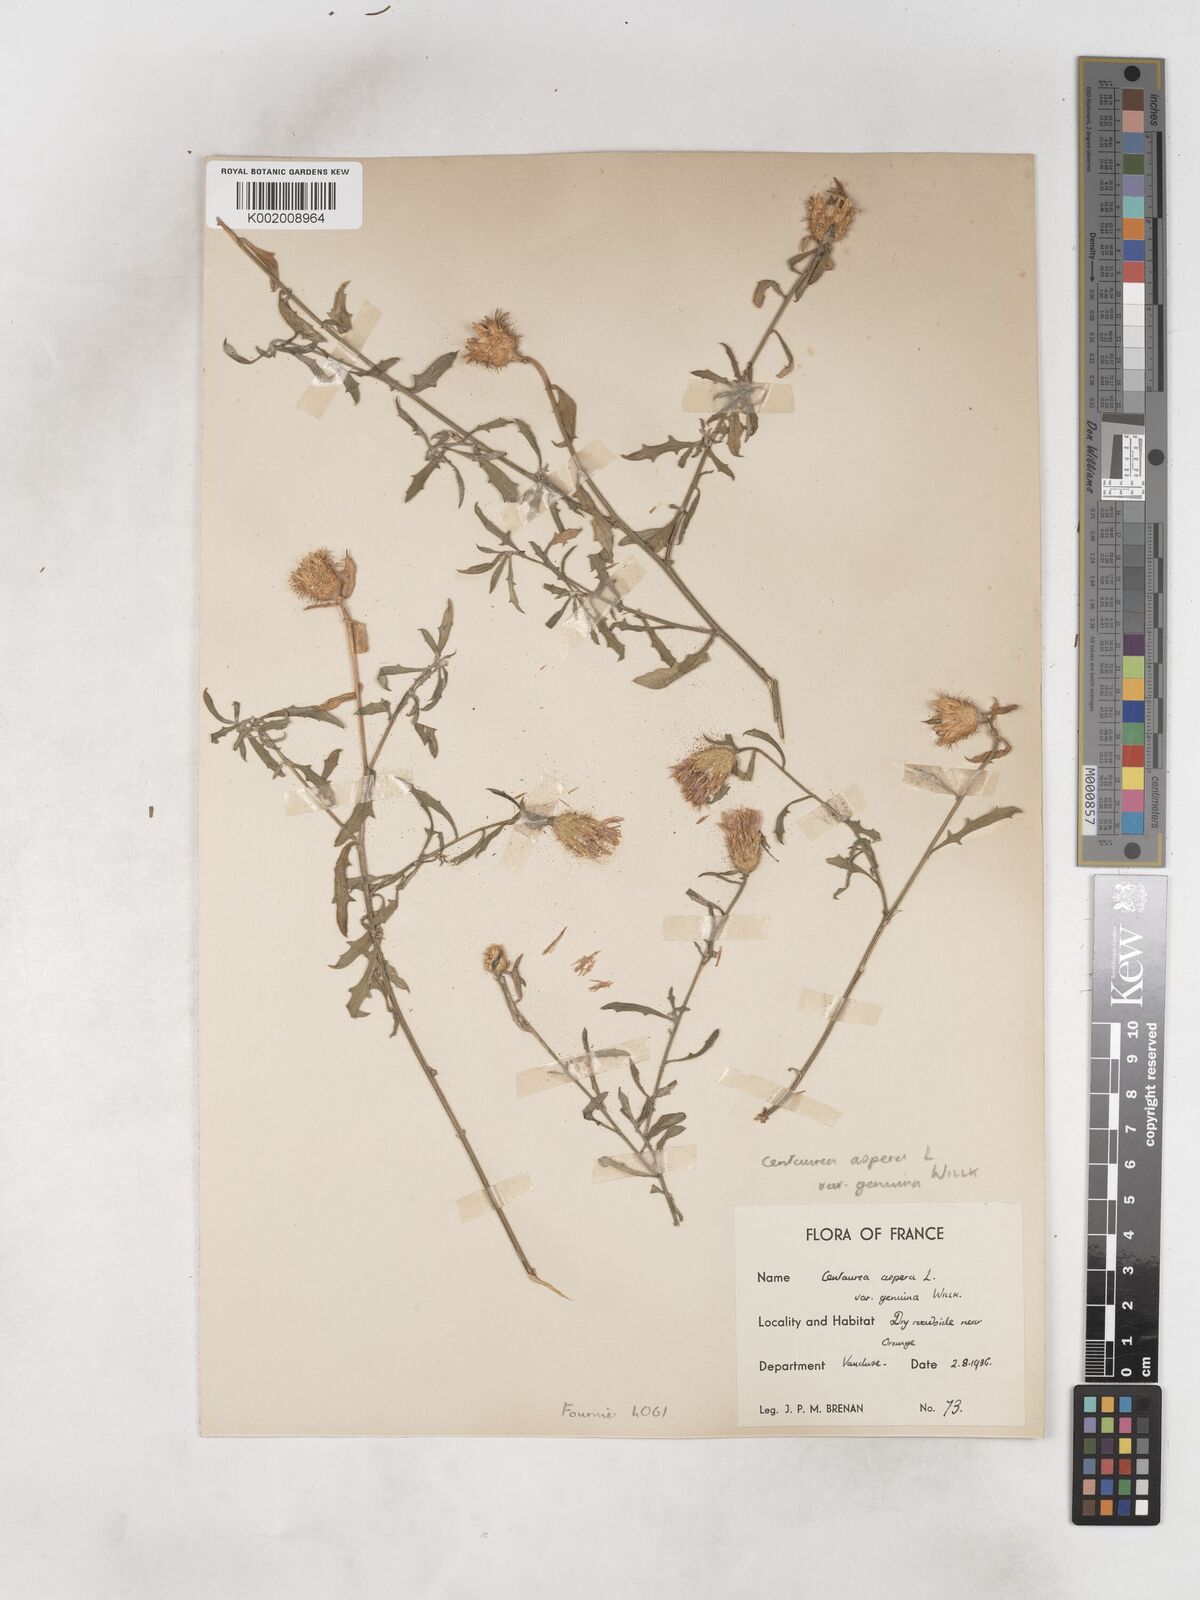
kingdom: Plantae
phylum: Tracheophyta
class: Magnoliopsida
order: Asterales
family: Asteraceae
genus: Centaurea
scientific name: Centaurea aspera
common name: Rough star-thistle
